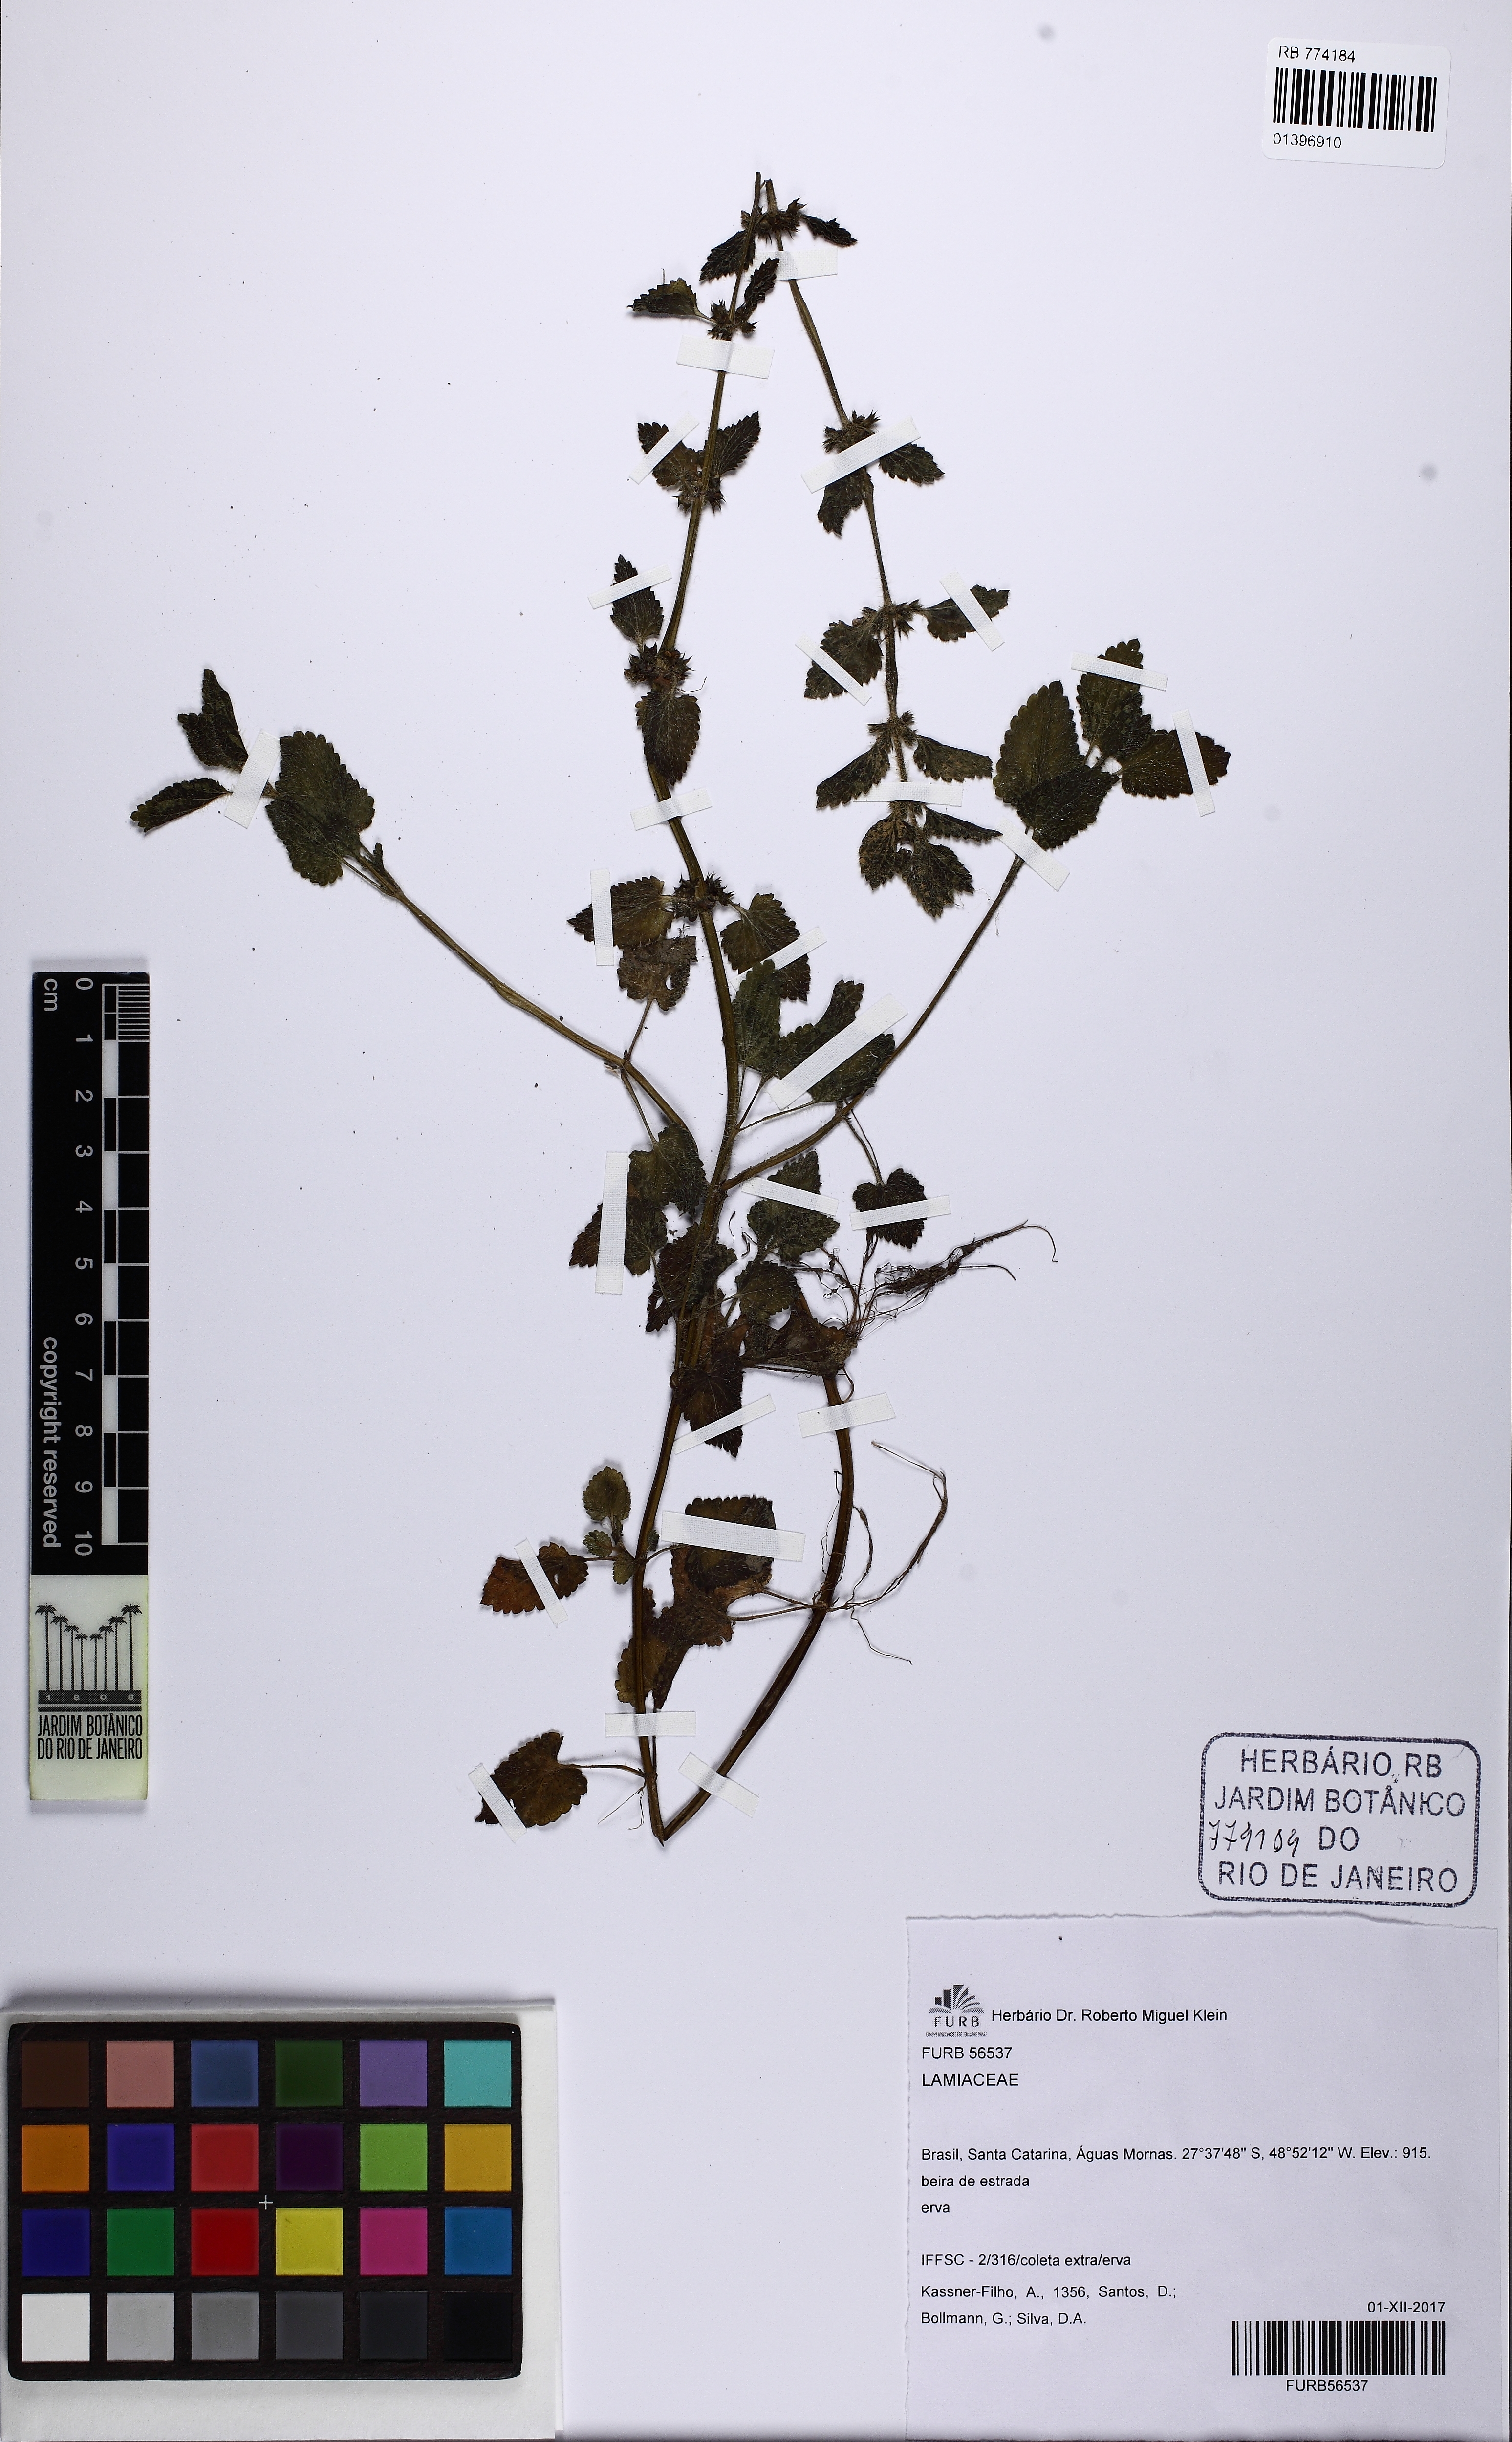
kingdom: Plantae
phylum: Tracheophyta
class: Magnoliopsida
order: Lamiales
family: Lamiaceae
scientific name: Lamiaceae
